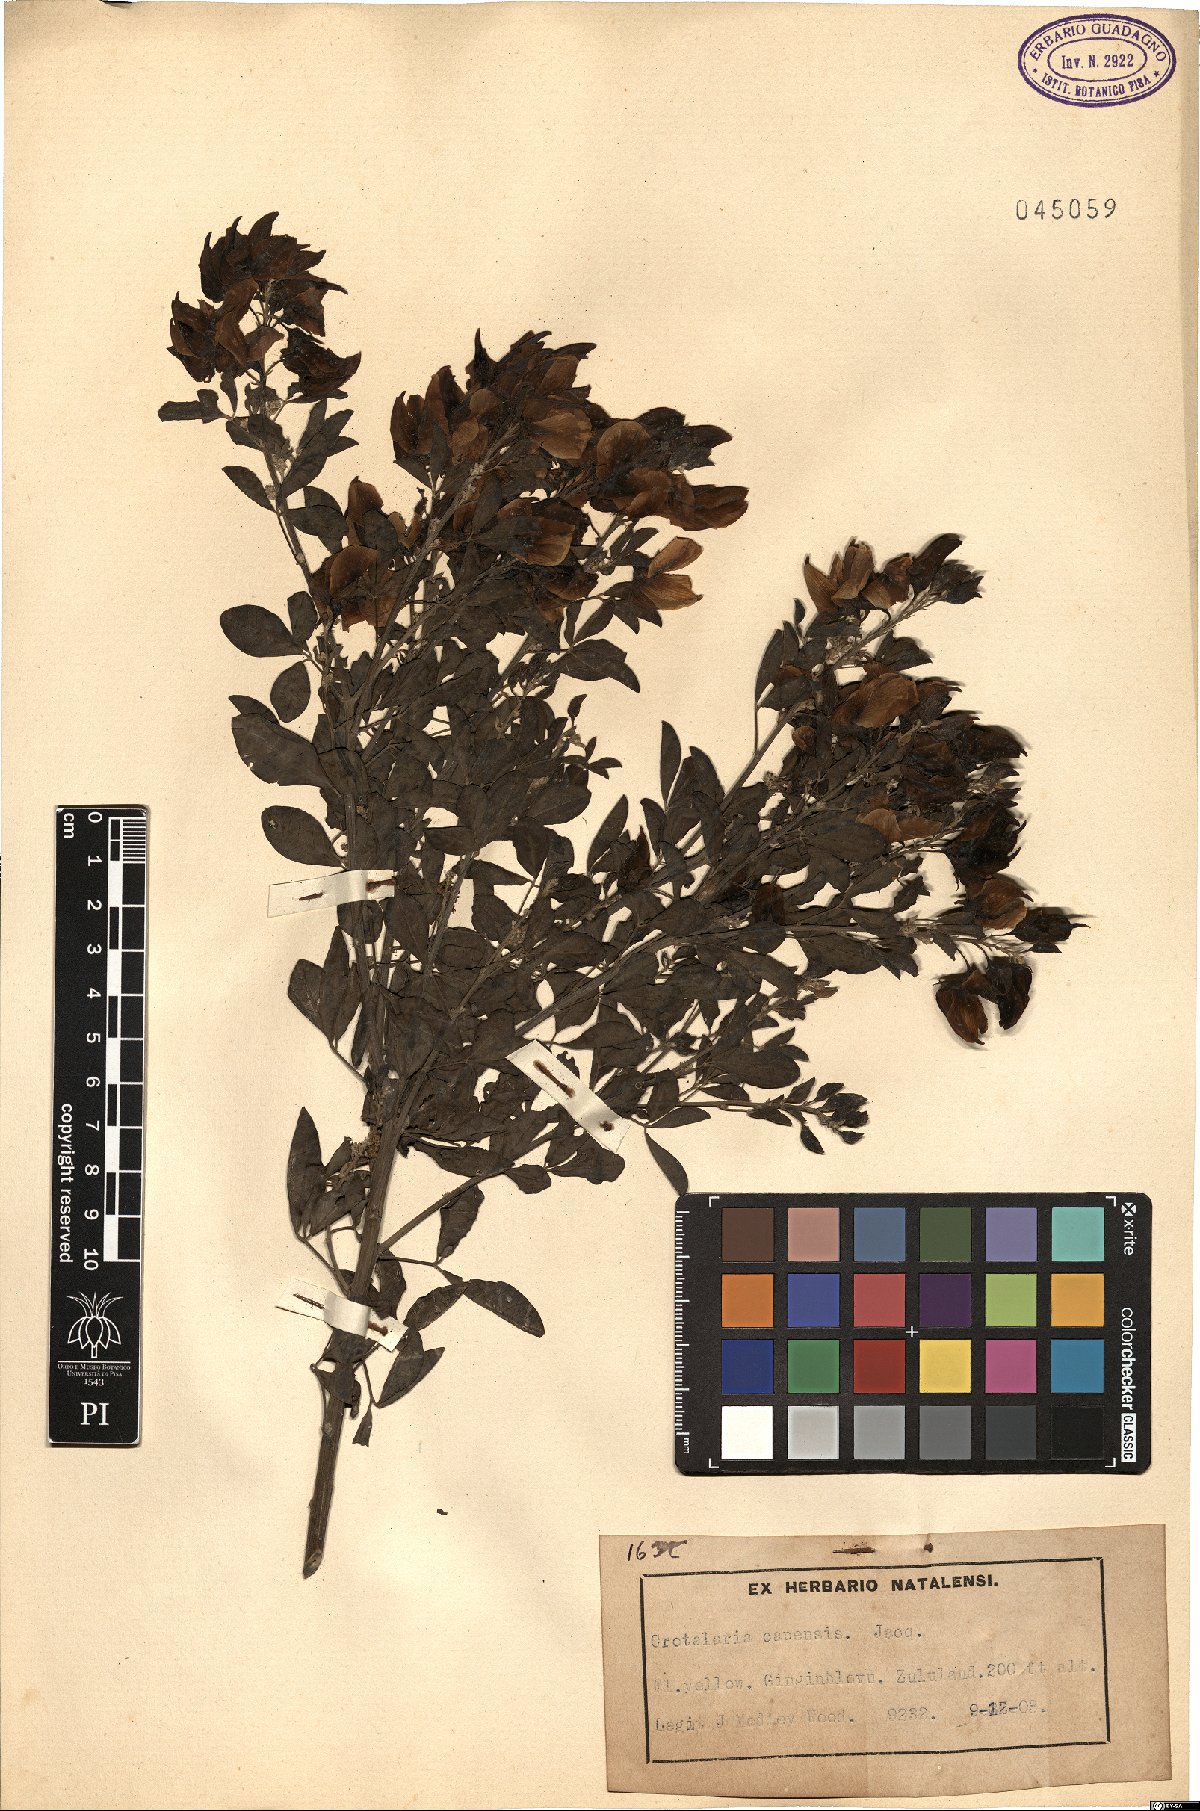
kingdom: Plantae
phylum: Tracheophyta
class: Magnoliopsida
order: Fabales
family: Fabaceae
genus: Crotalaria
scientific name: Crotalaria capensis
